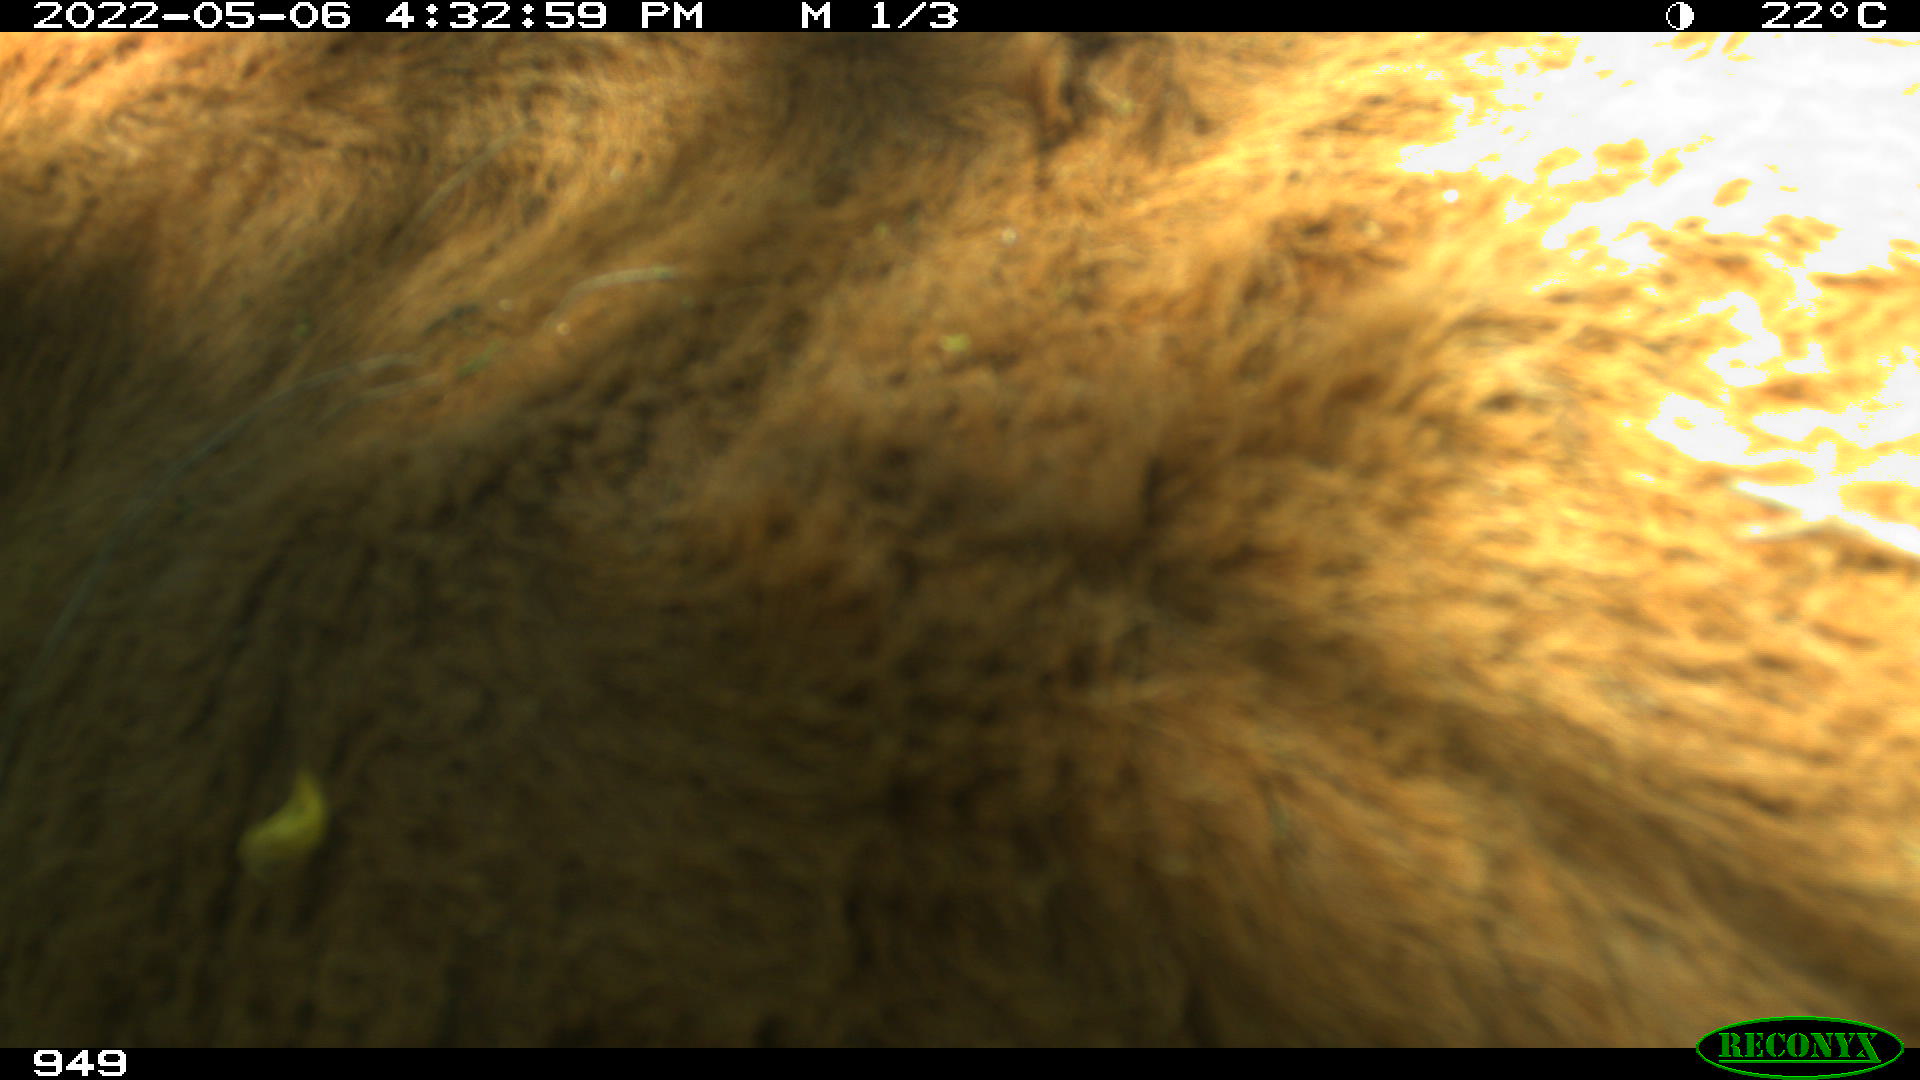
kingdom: Animalia
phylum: Chordata
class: Mammalia
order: Artiodactyla
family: Bovidae
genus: Bos
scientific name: Bos taurus
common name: Domesticated cattle
